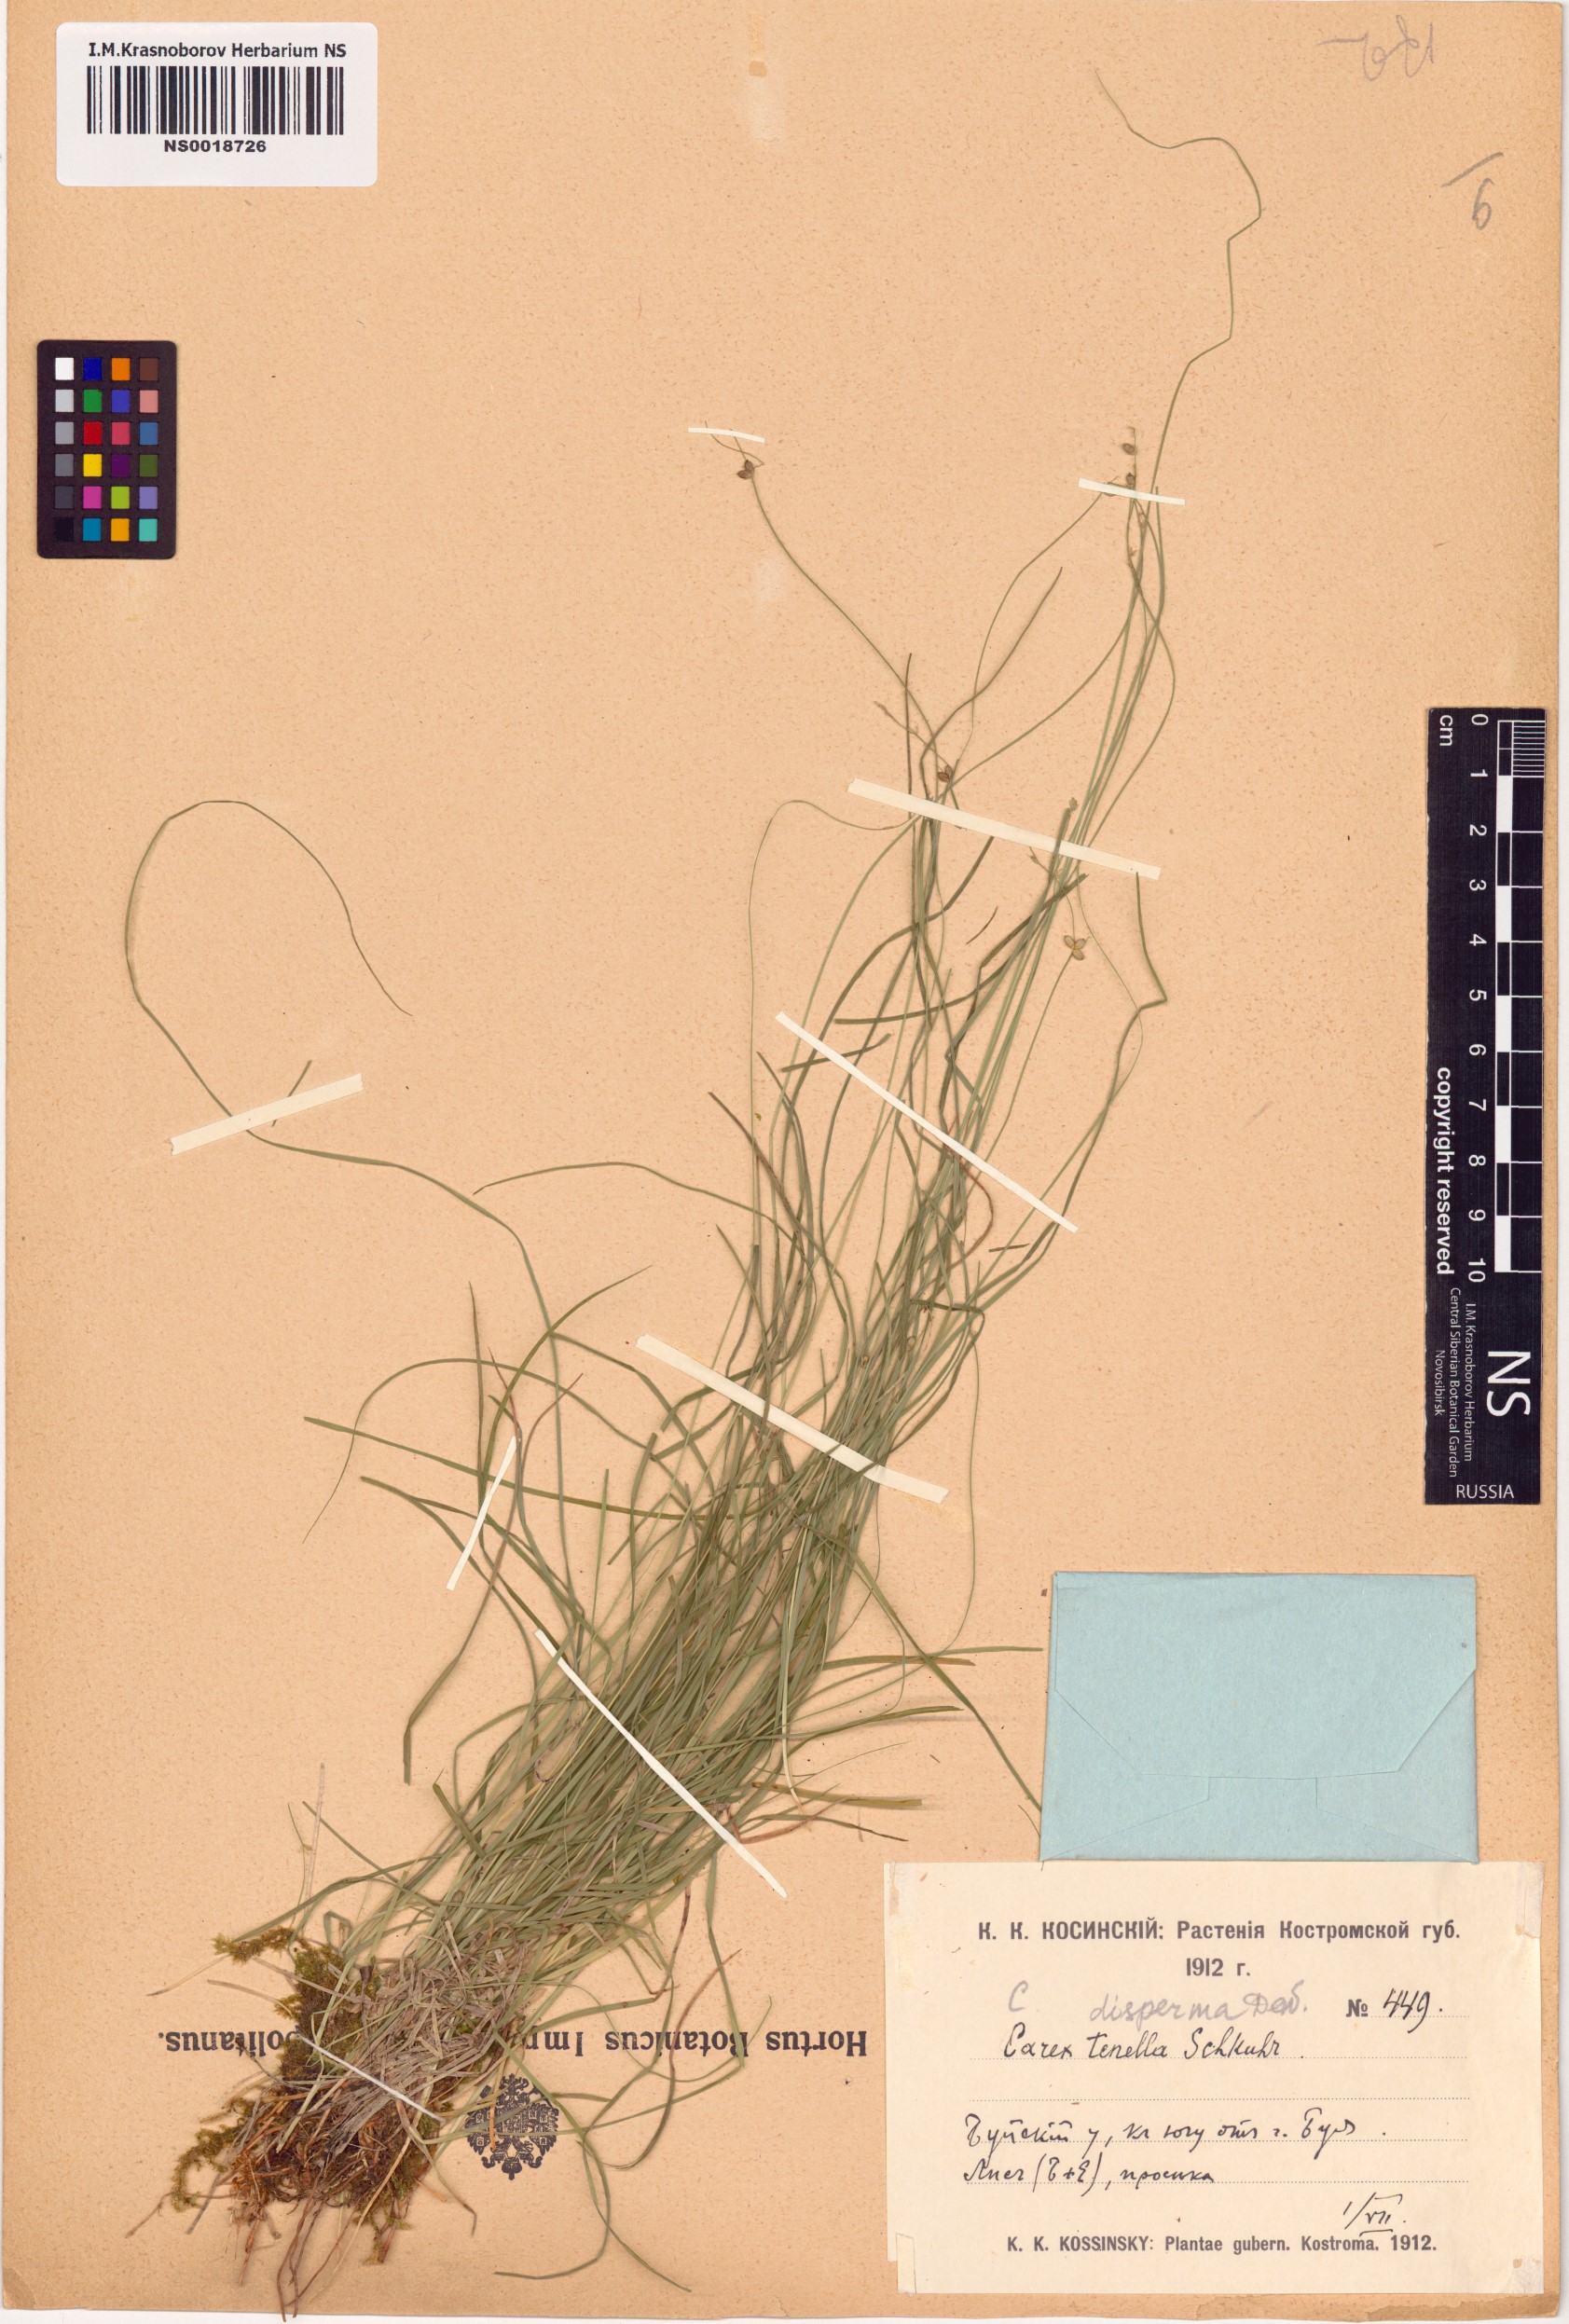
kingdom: Plantae
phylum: Tracheophyta
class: Liliopsida
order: Poales
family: Cyperaceae
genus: Carex
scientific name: Carex disperma
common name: Short-leaved sedge
